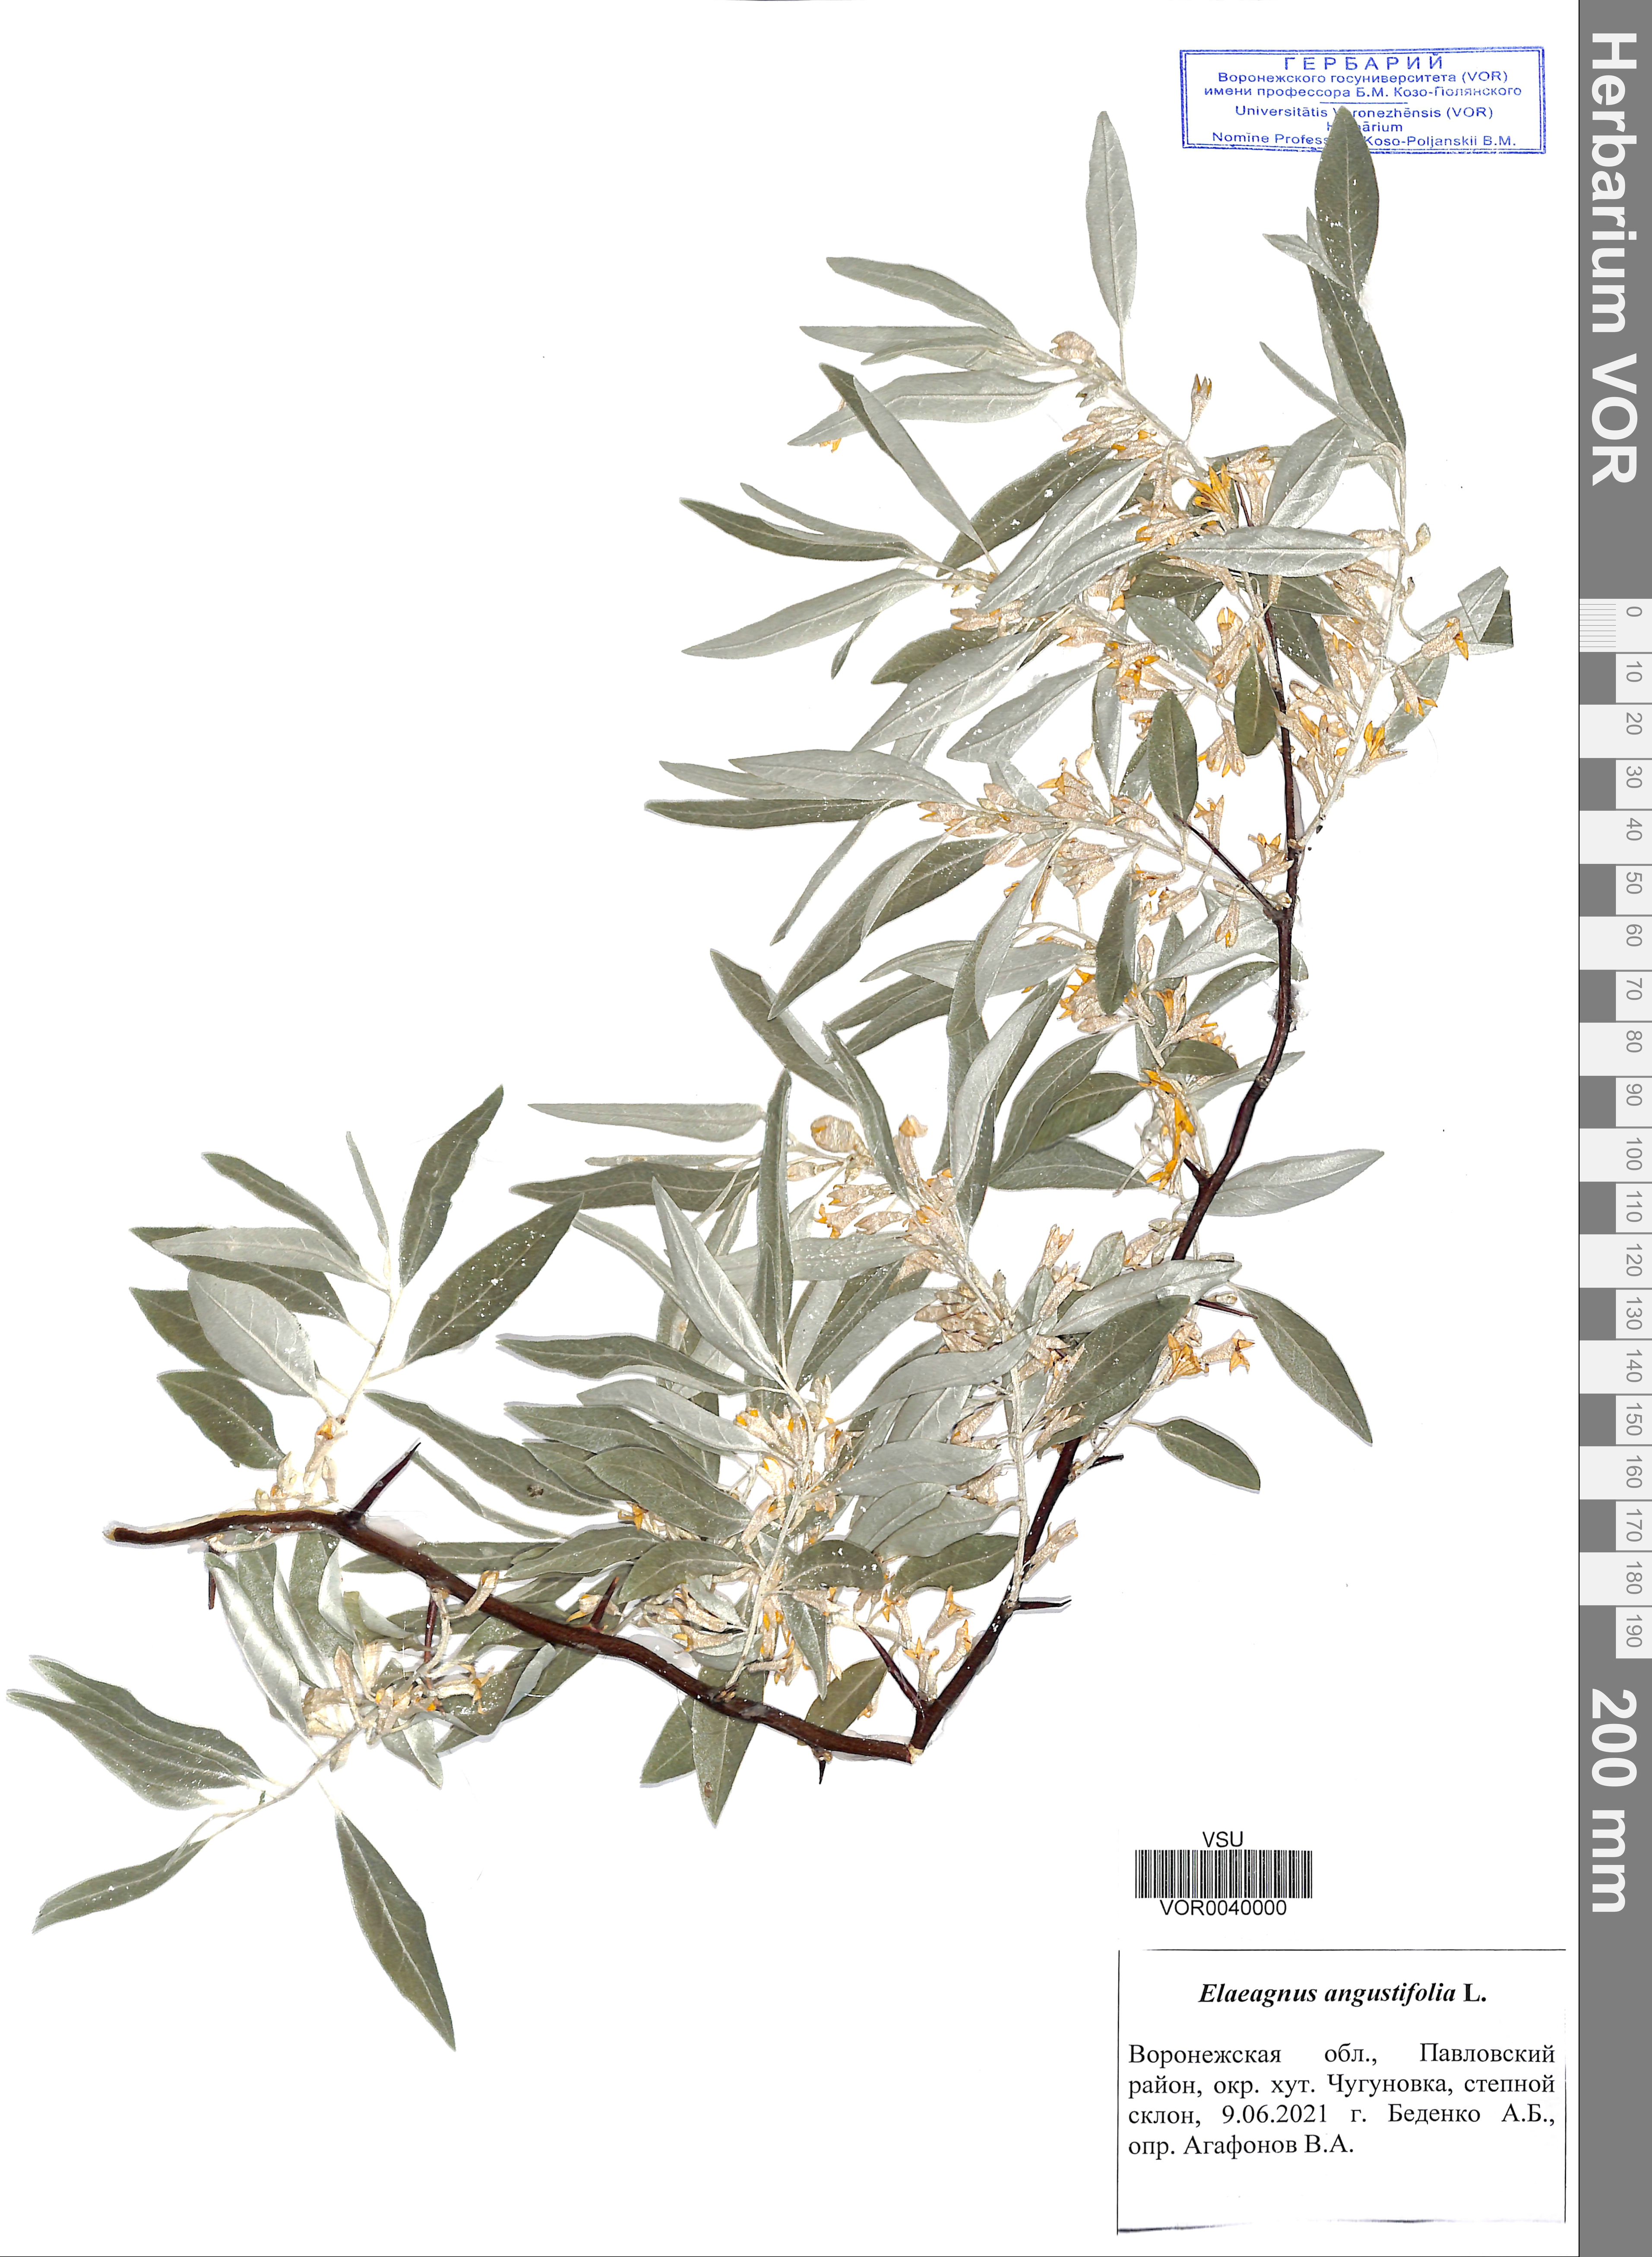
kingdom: Plantae
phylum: Tracheophyta
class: Magnoliopsida
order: Rosales
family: Elaeagnaceae
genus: Elaeagnus
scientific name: Elaeagnus angustifolia
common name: Russian olive
